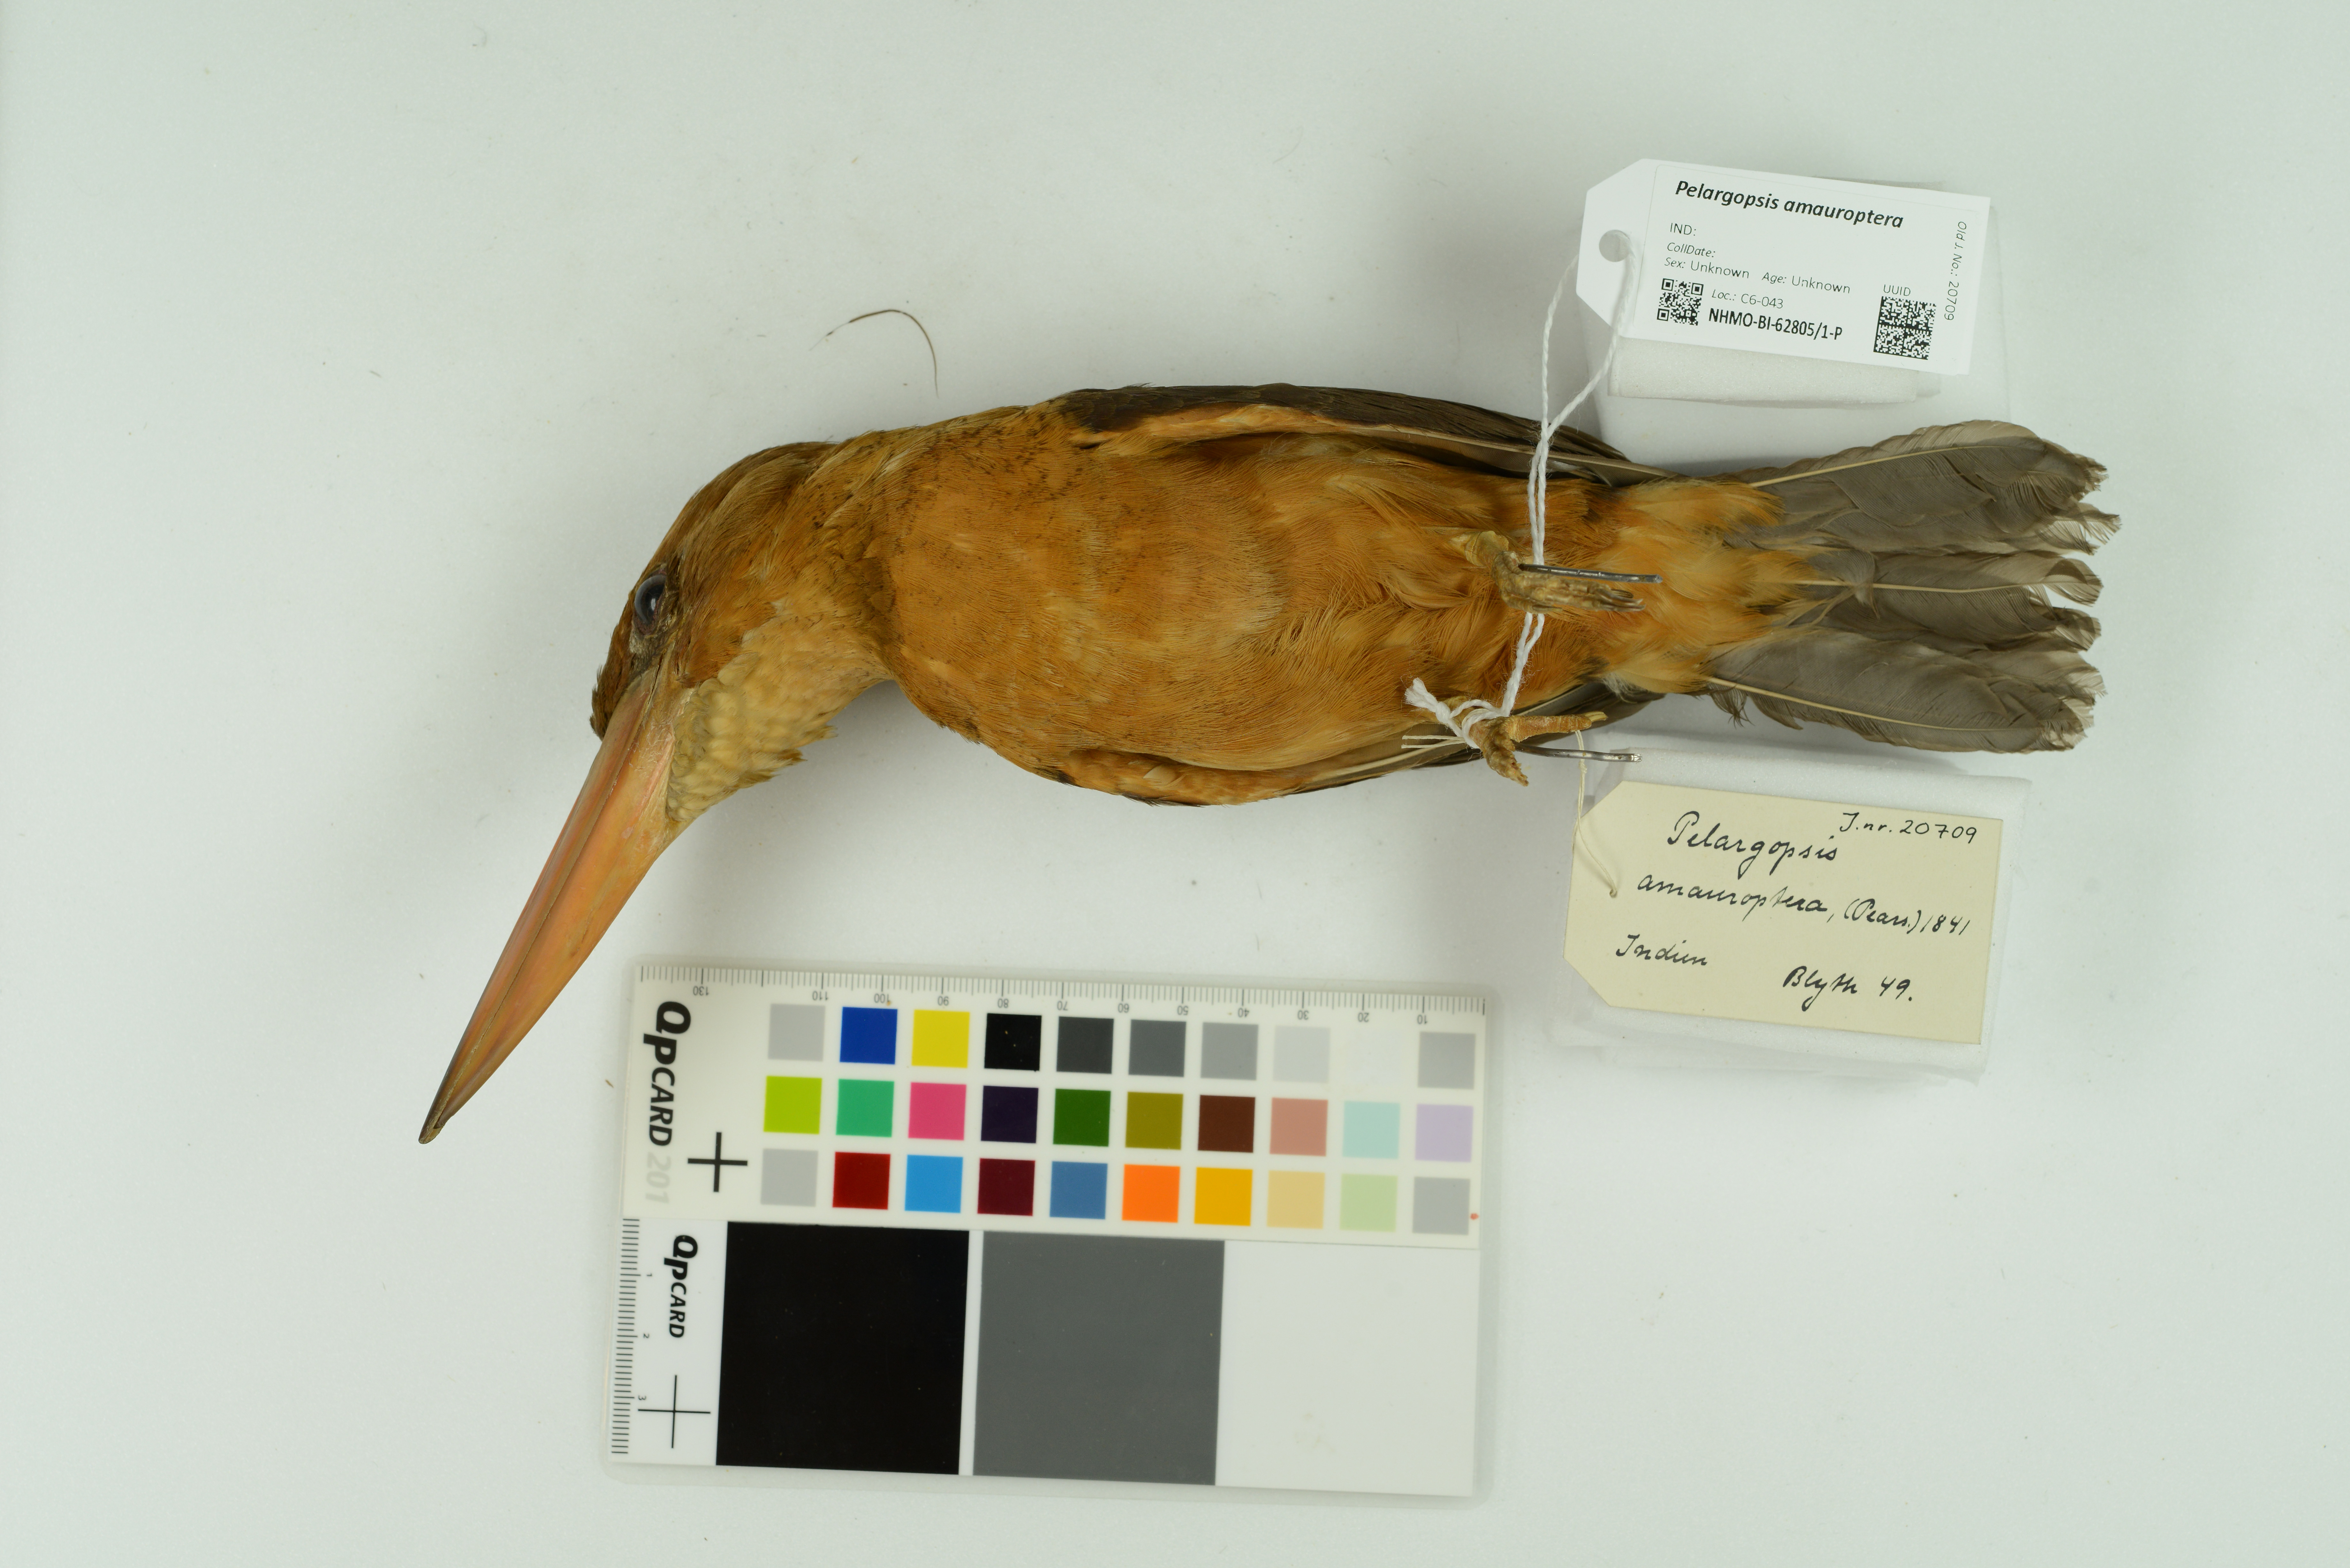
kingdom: Animalia
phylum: Chordata
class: Aves
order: Coraciiformes
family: Alcedinidae
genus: Pelargopsis
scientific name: Pelargopsis amauroptera
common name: Brown-winged kingfisher
